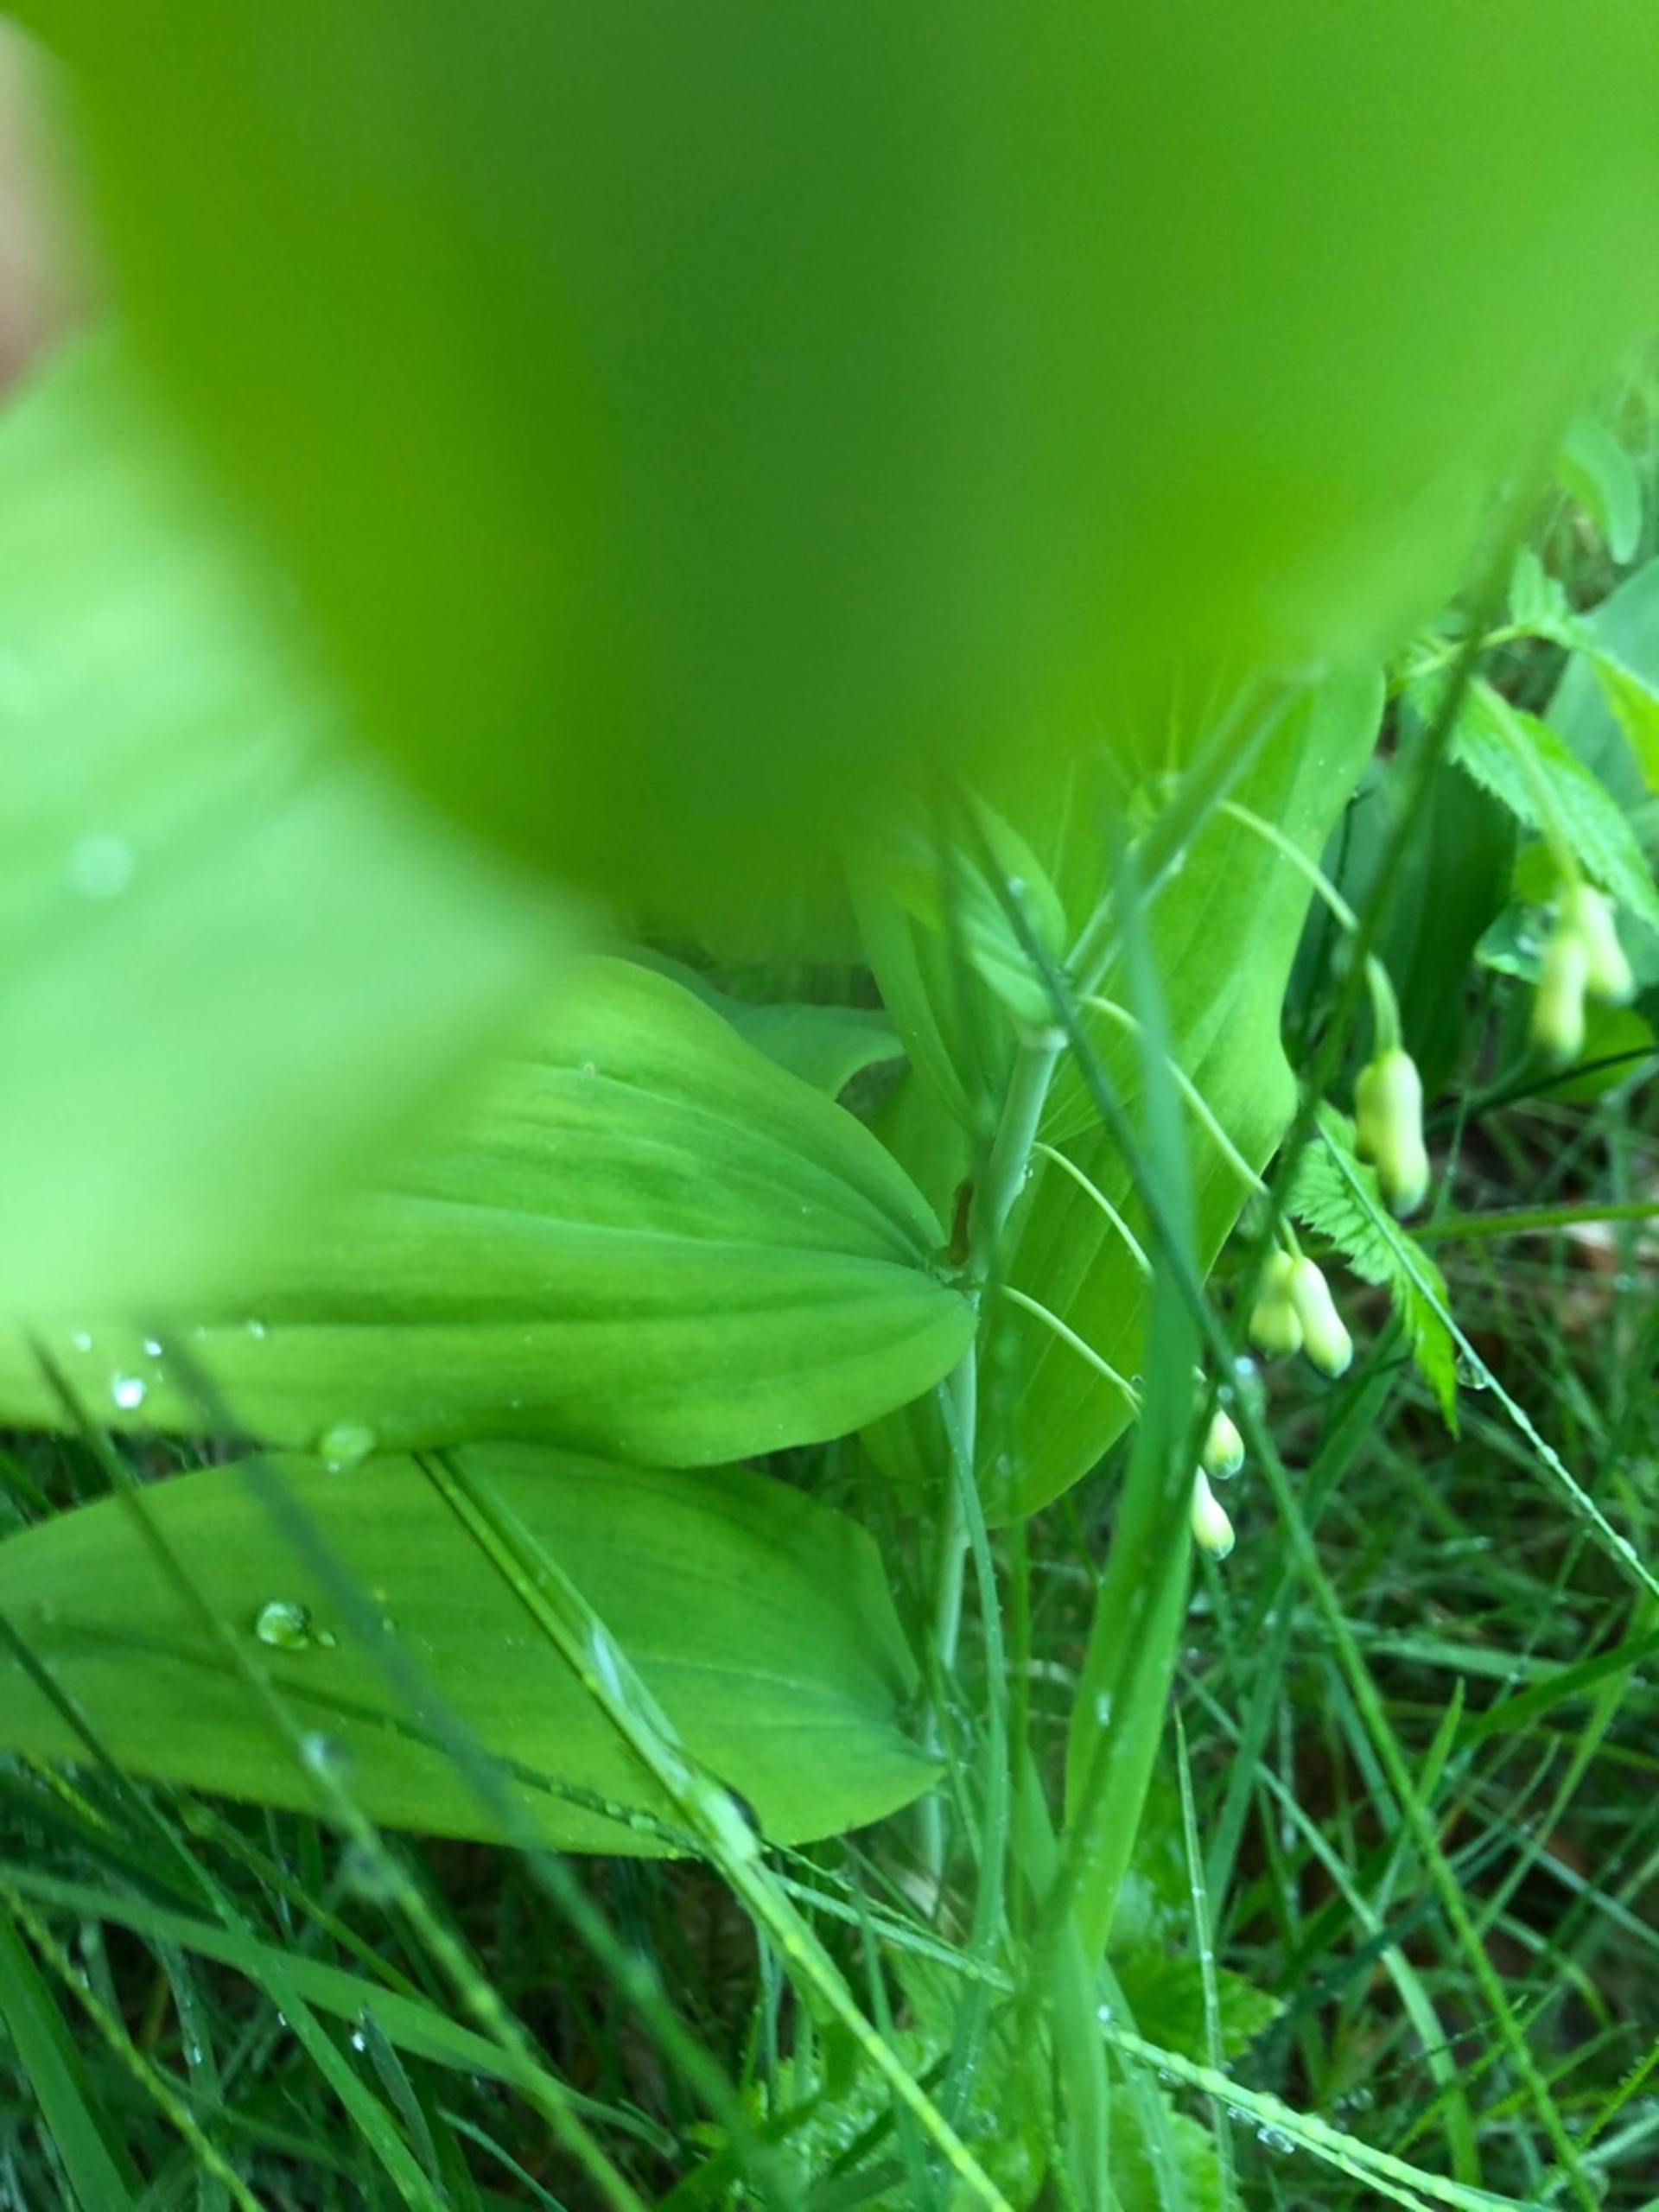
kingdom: Plantae
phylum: Tracheophyta
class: Liliopsida
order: Asparagales
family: Asparagaceae
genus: Polygonatum
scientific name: Polygonatum multiflorum
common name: Stor konval
